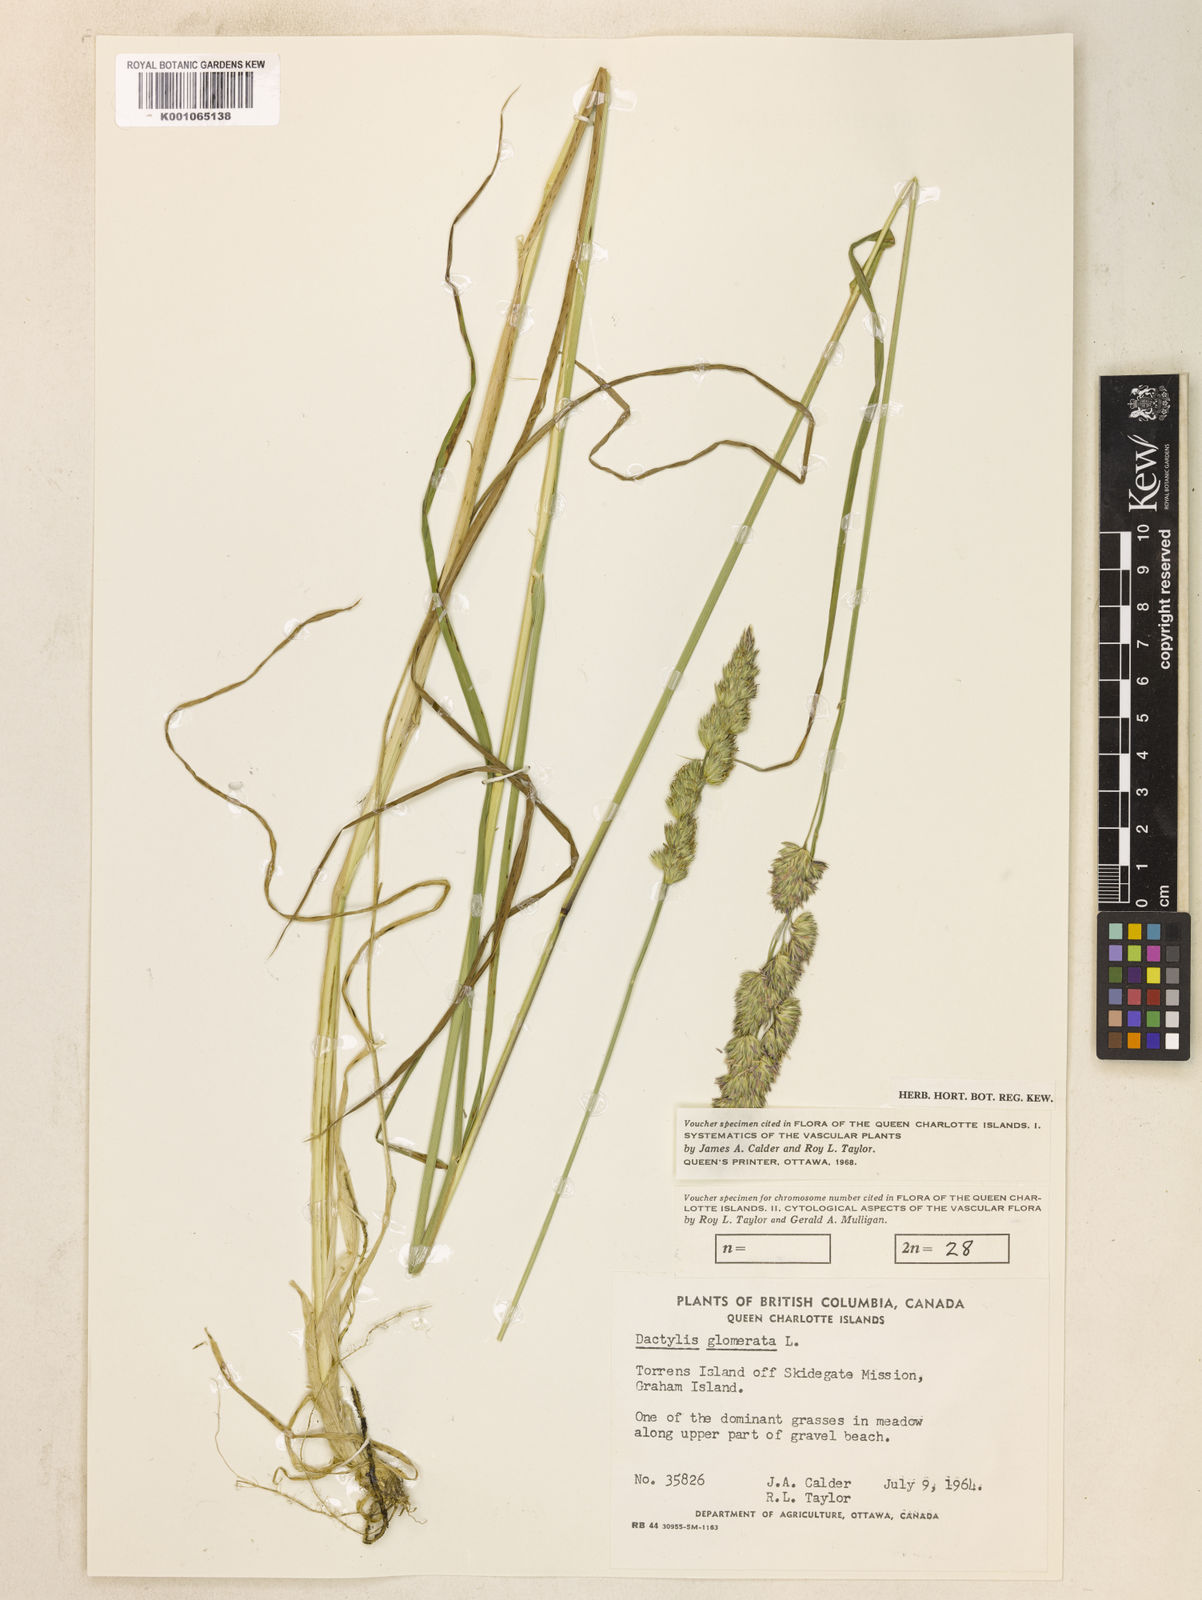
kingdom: Plantae
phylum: Tracheophyta
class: Liliopsida
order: Poales
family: Poaceae
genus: Dactylis
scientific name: Dactylis glomerata
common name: Orchardgrass
